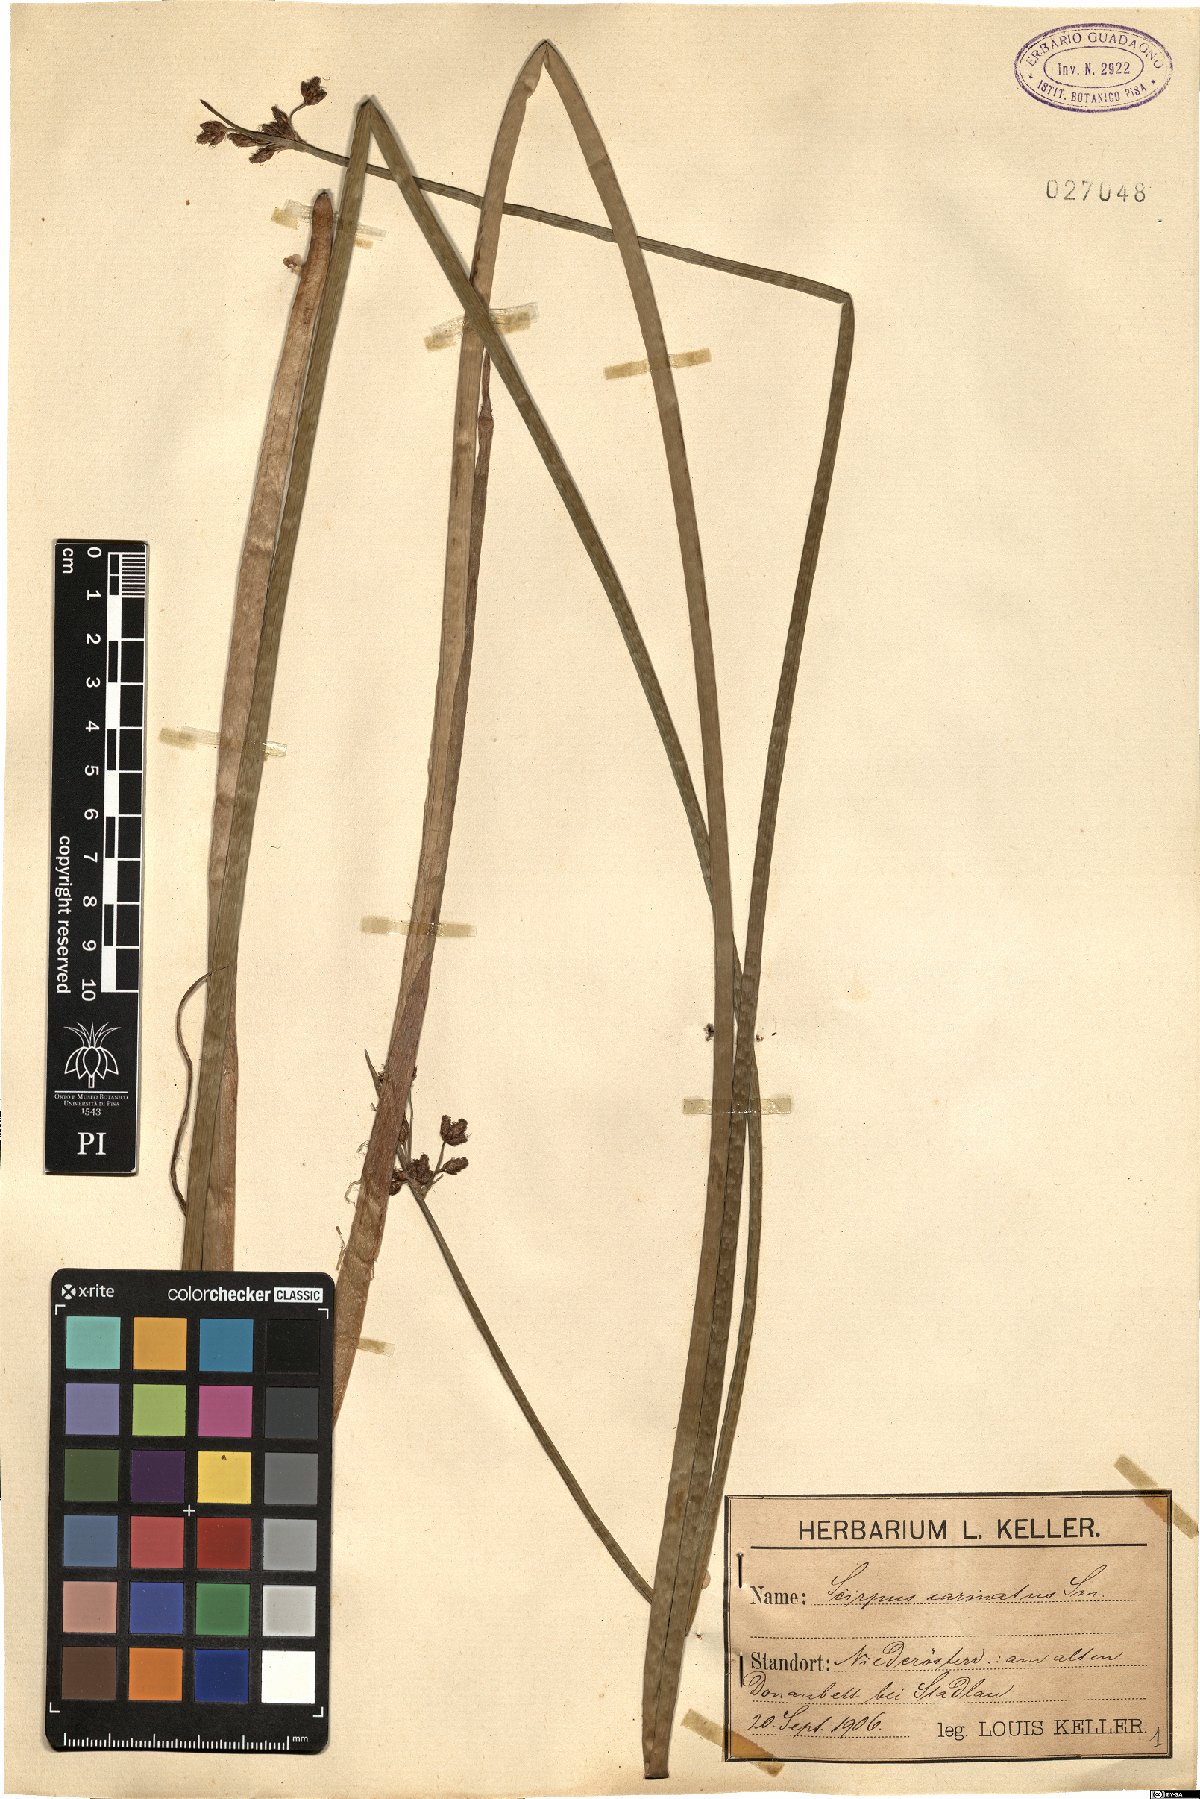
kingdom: Plantae
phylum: Tracheophyta
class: Liliopsida
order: Poales
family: Cyperaceae
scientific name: Cyperaceae
